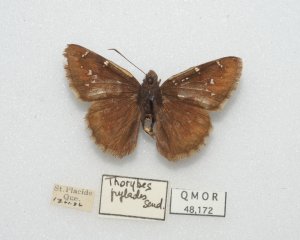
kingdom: Animalia
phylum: Arthropoda
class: Insecta
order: Lepidoptera
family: Hesperiidae
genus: Autochton
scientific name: Autochton
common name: Northern Cloudywing
